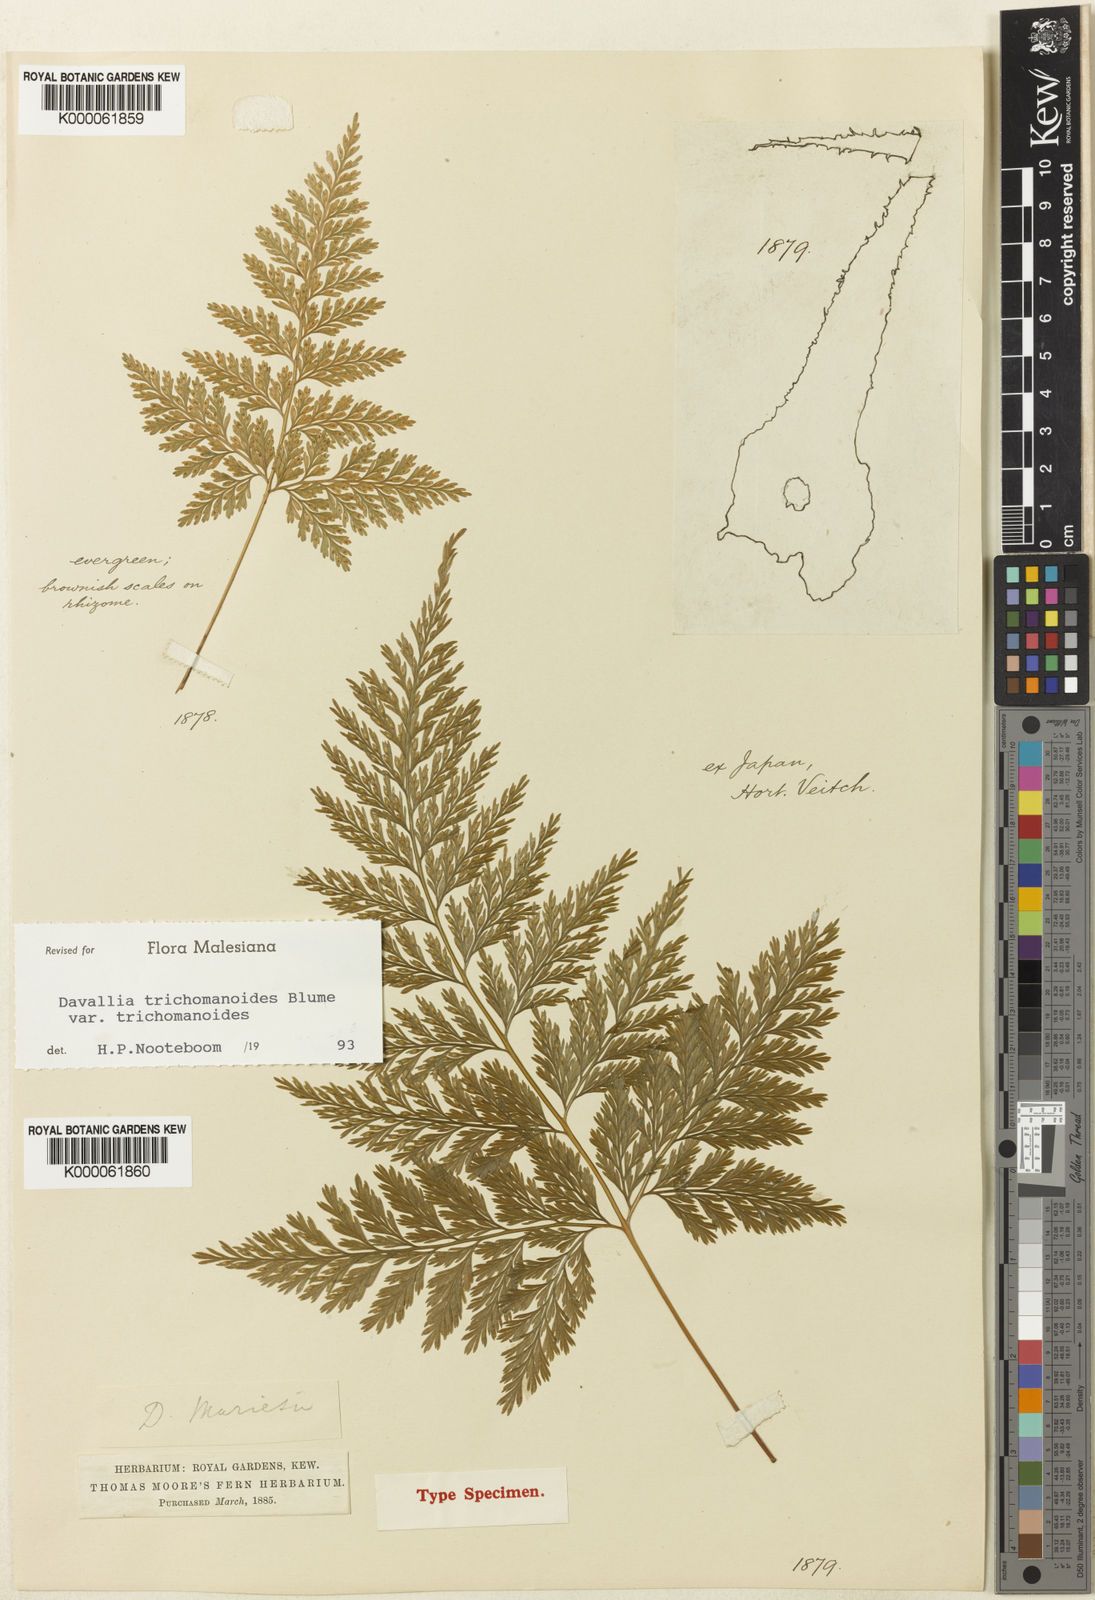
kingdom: Plantae
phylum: Tracheophyta
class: Polypodiopsida
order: Polypodiales
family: Davalliaceae
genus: Davallia
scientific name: Davallia mariesii
